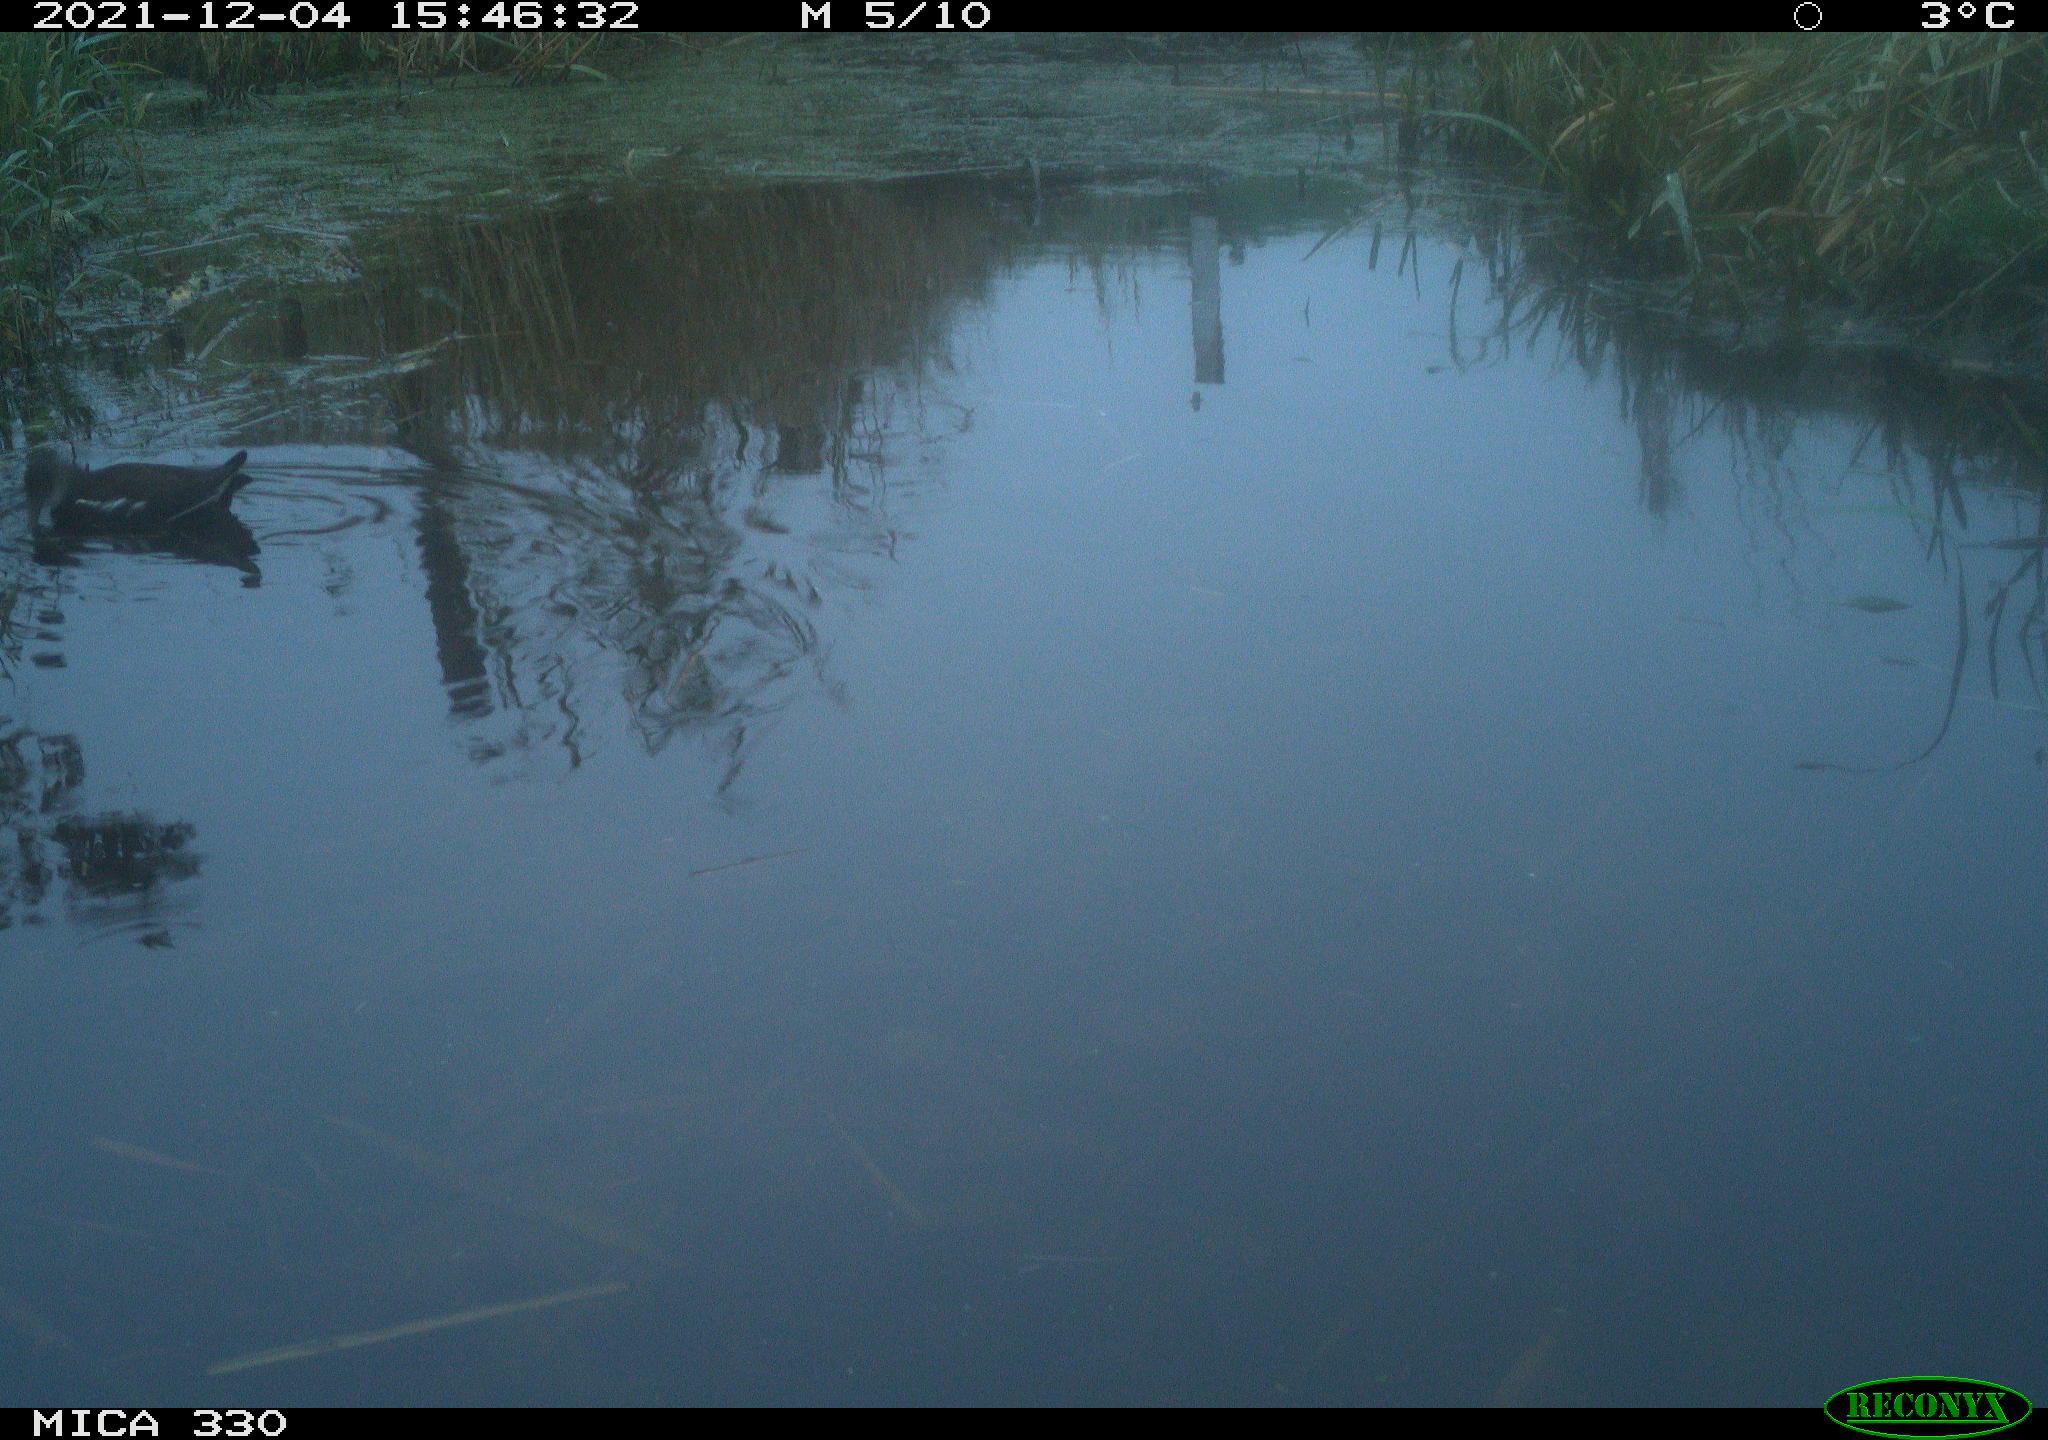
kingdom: Animalia
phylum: Chordata
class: Aves
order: Gruiformes
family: Rallidae
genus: Gallinula
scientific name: Gallinula chloropus
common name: Common moorhen
